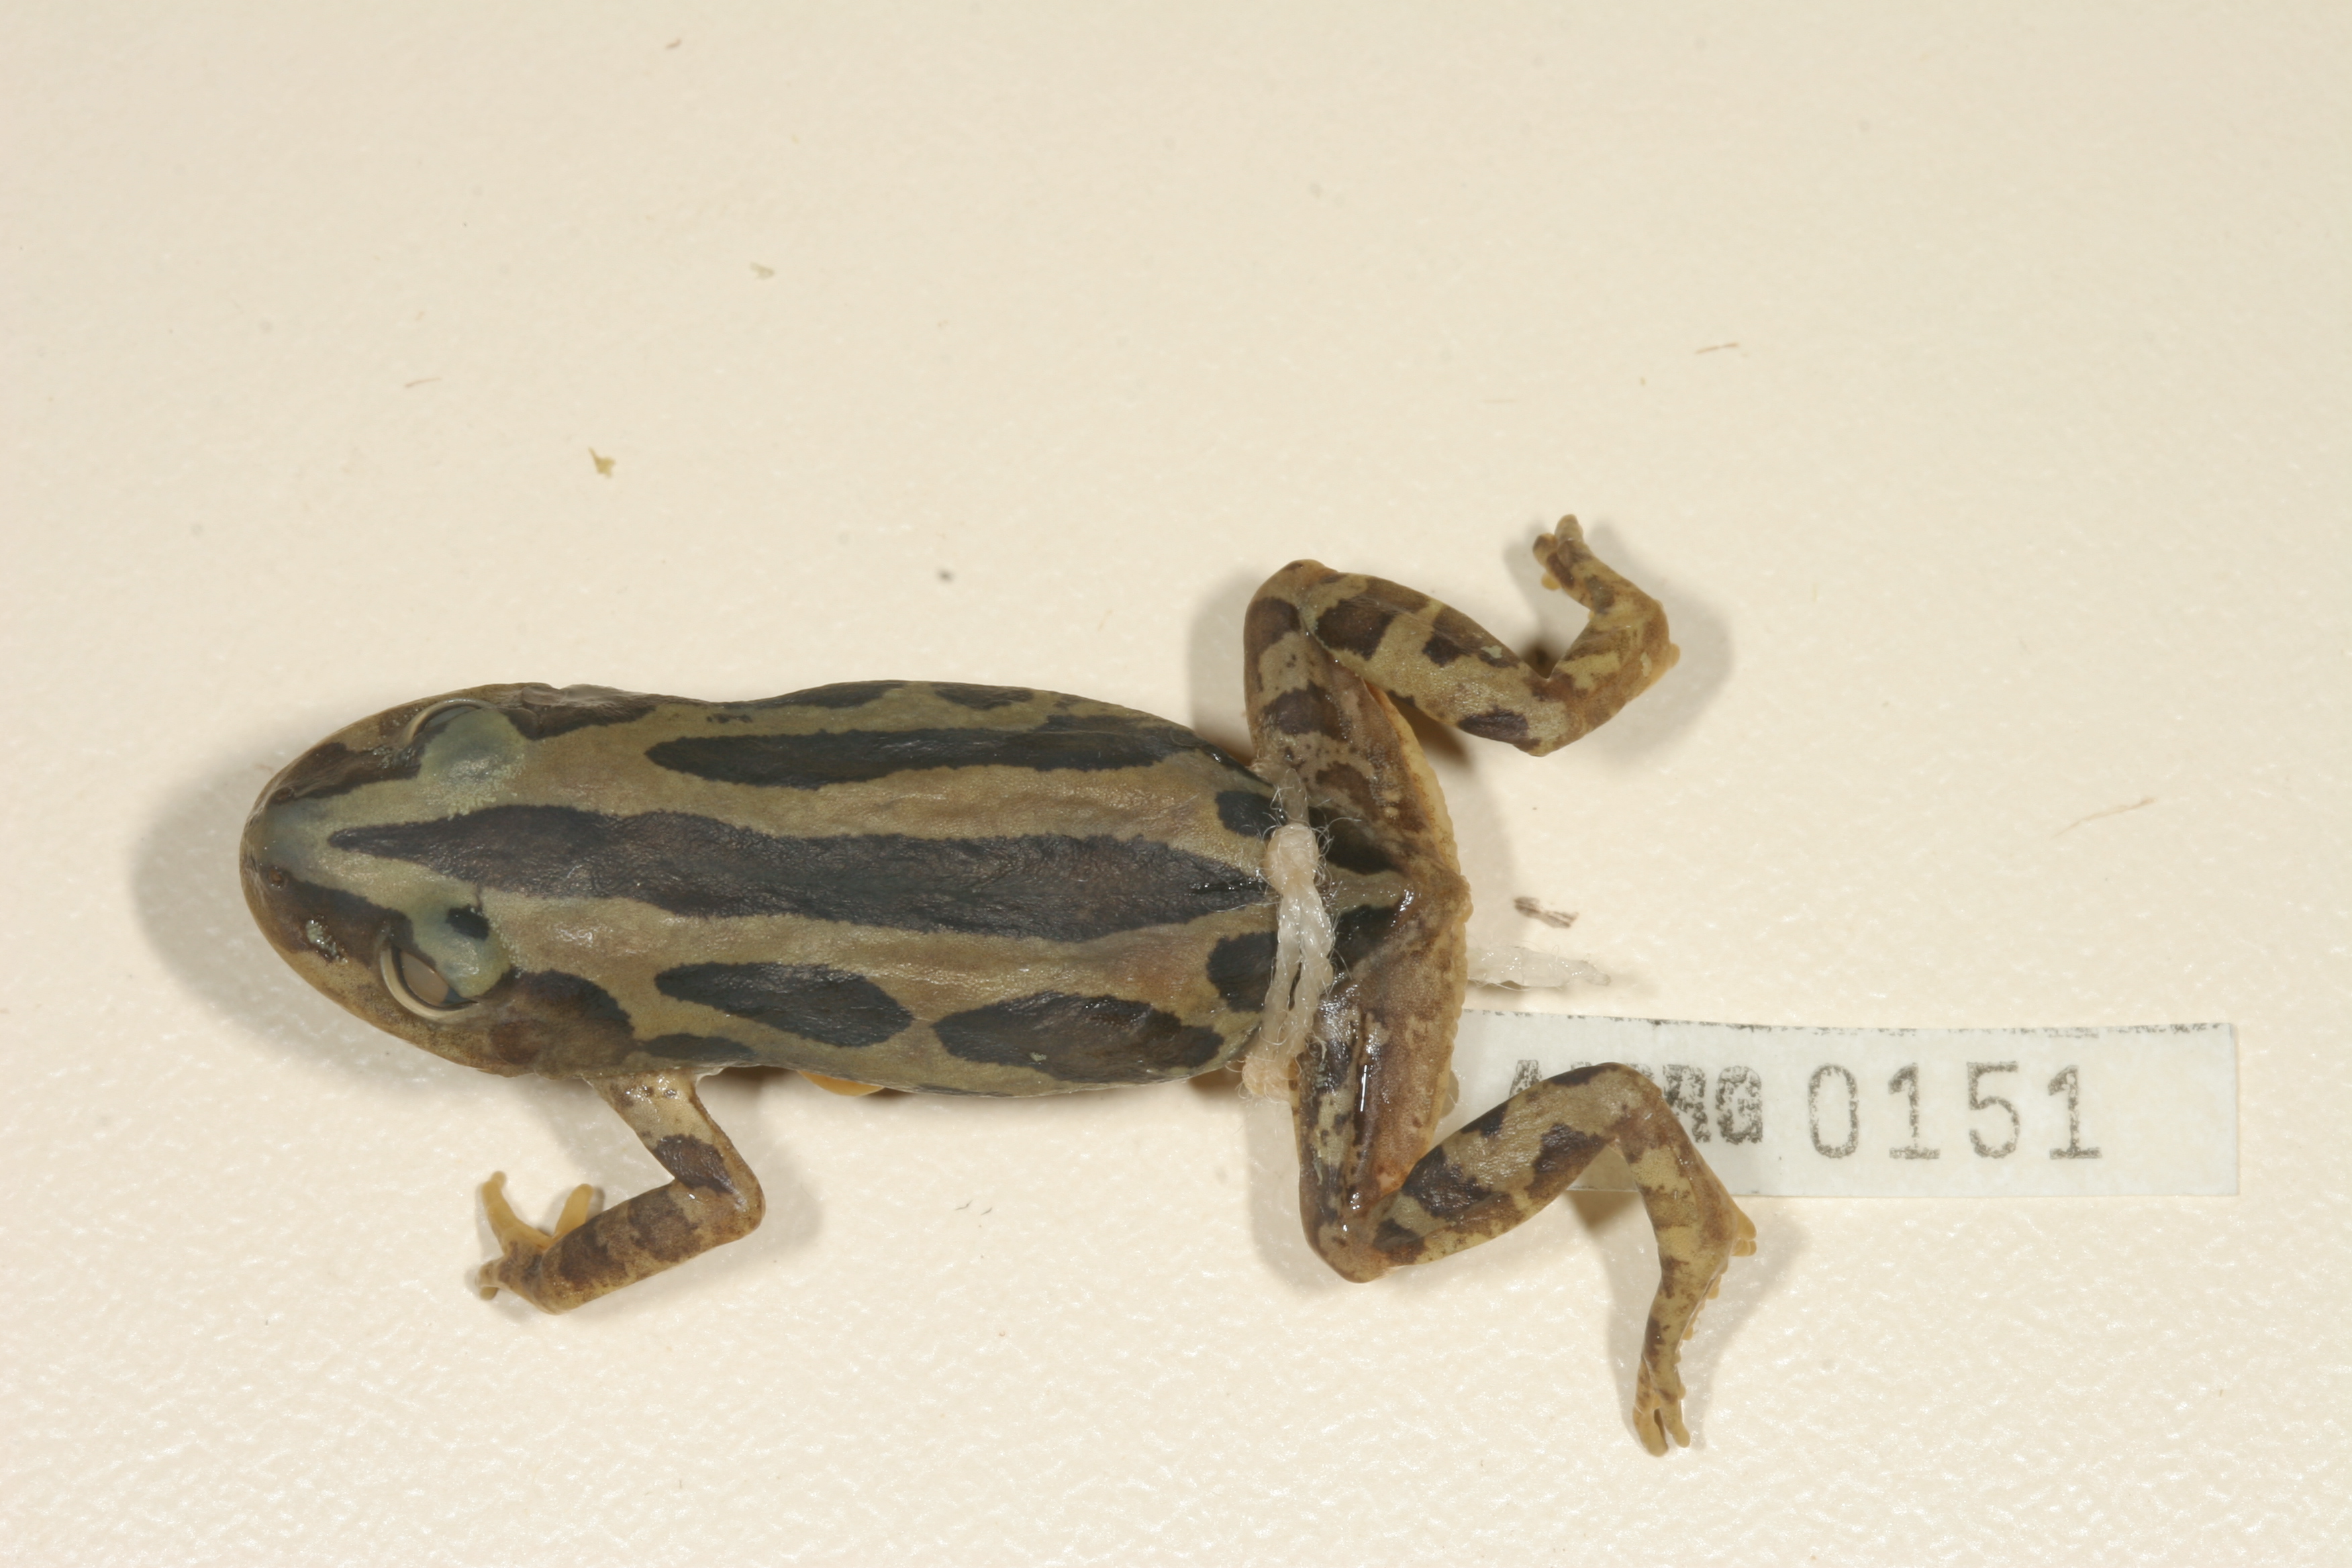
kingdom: Animalia
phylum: Chordata
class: Amphibia
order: Anura
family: Hyperoliidae
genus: Kassina
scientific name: Kassina senegalensis
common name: Senegal land frog
